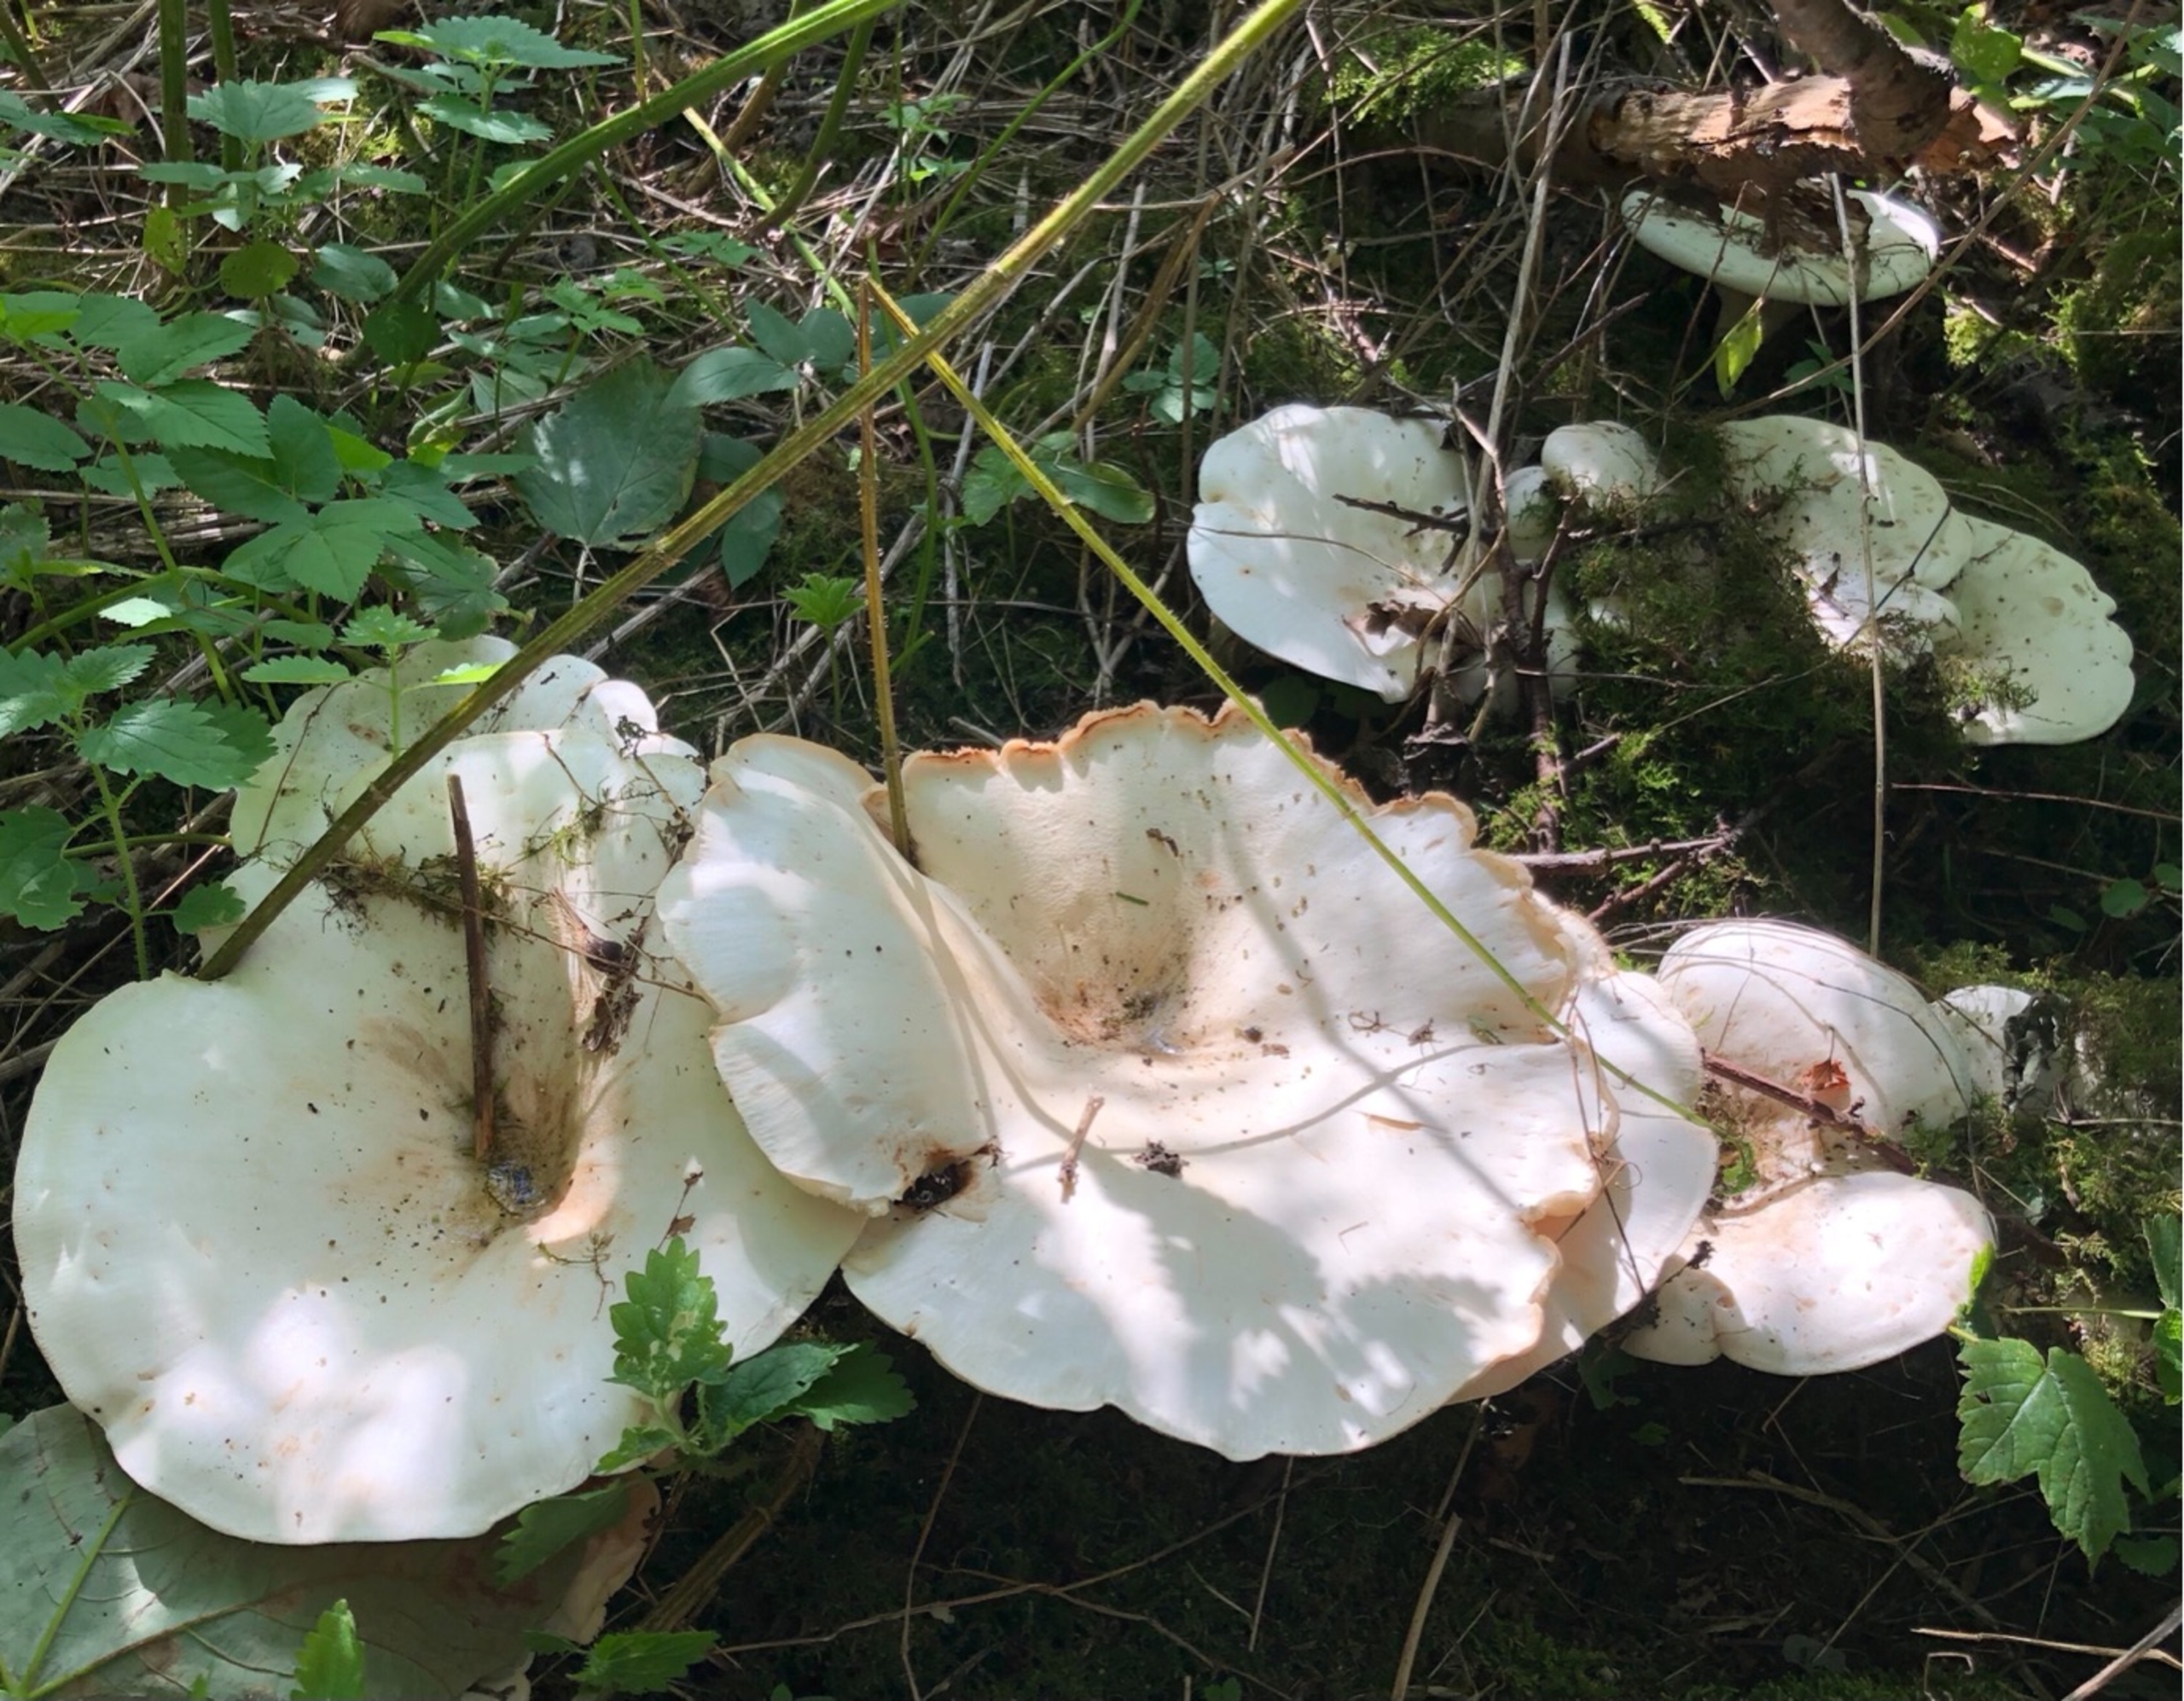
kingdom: Fungi
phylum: Basidiomycota
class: Agaricomycetes
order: Agaricales
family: Tricholomataceae
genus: Aspropaxillus
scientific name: Aspropaxillus giganteus
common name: Kæmpe-tragtridderhat
